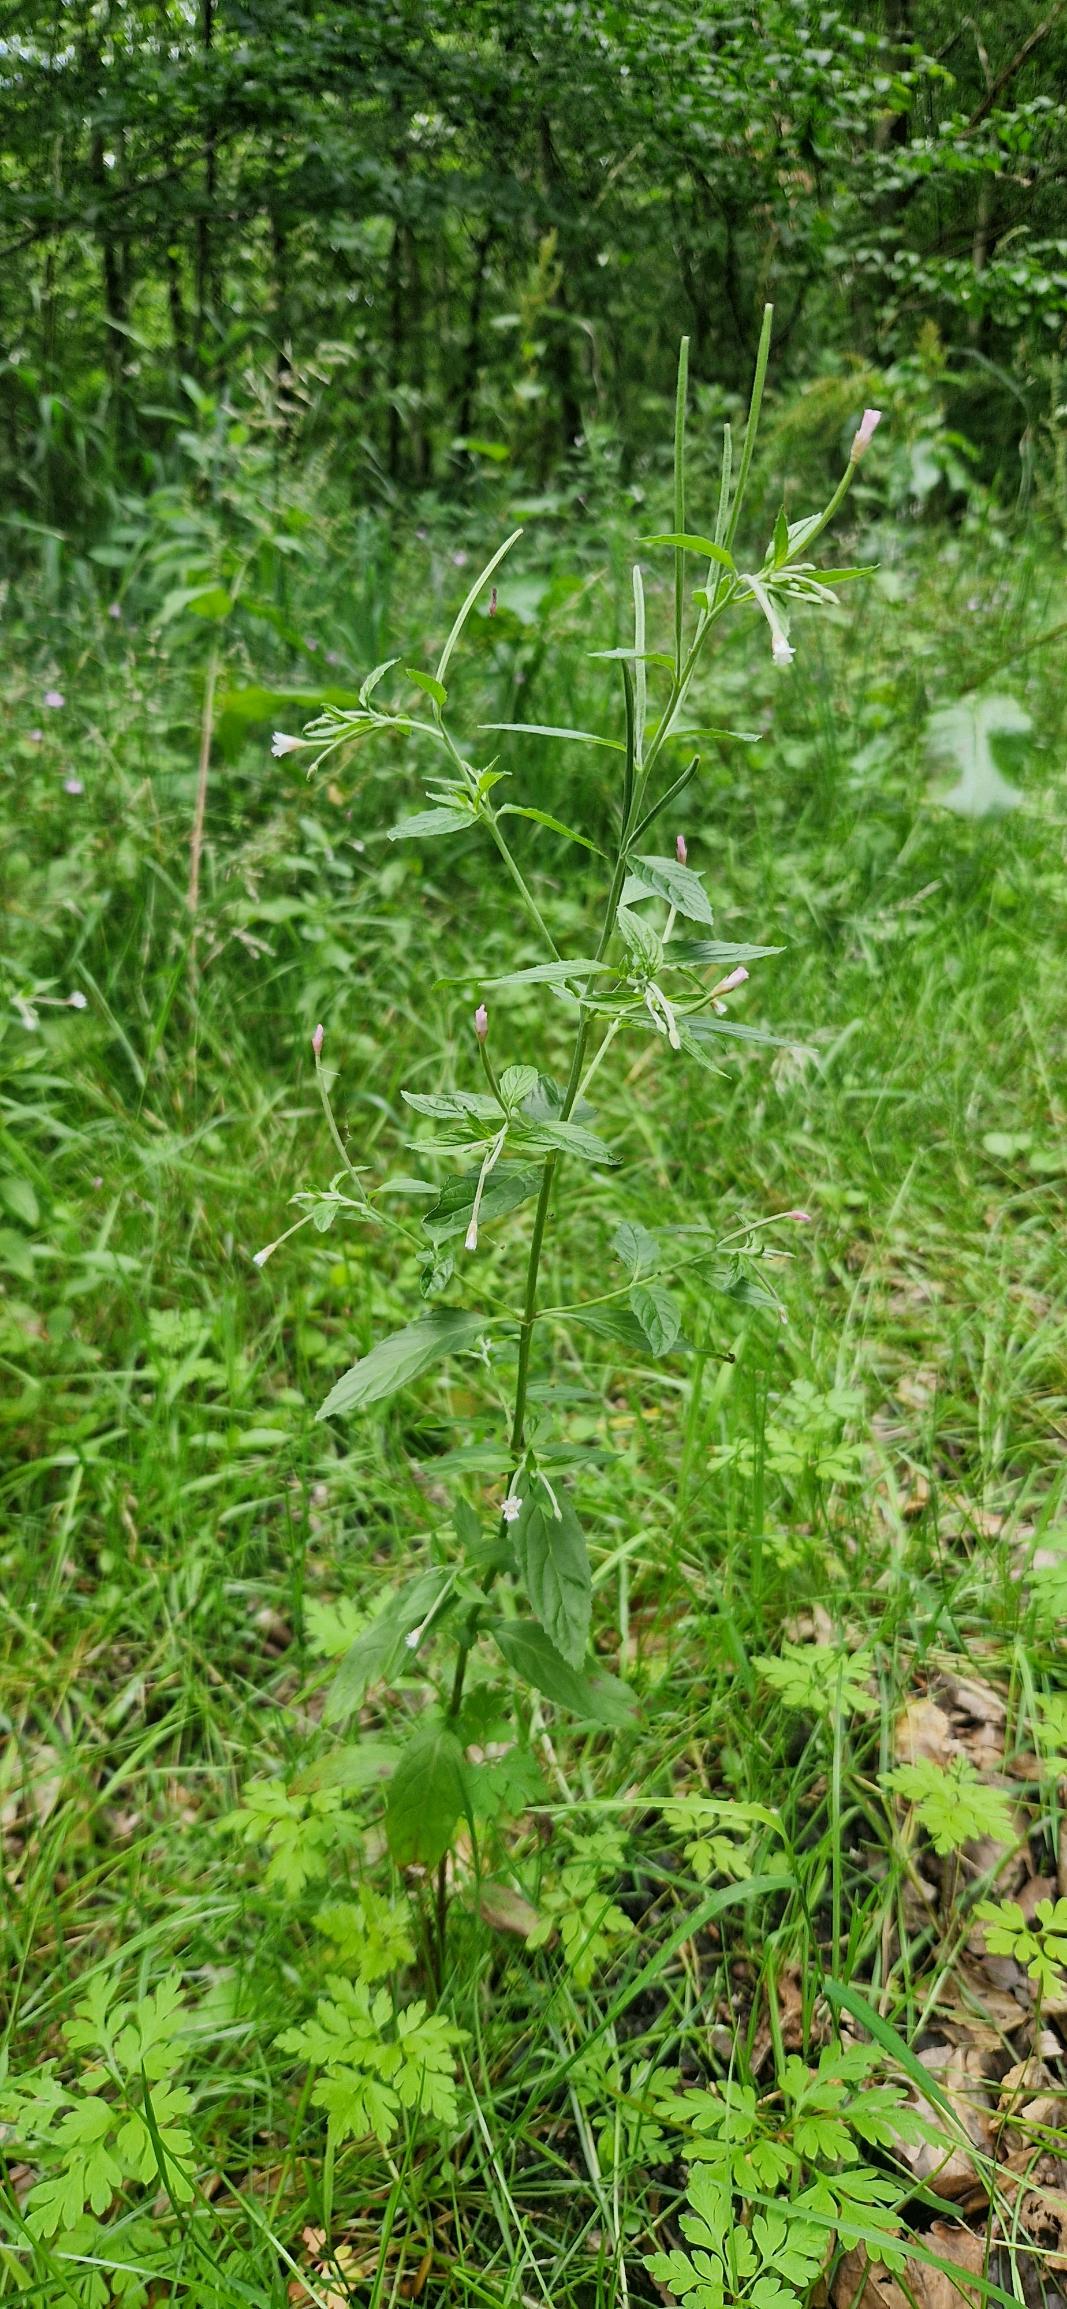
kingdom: Plantae
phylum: Tracheophyta
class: Magnoliopsida
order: Myrtales
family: Onagraceae
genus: Epilobium
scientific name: Epilobium roseum
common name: Rosen-dueurt
